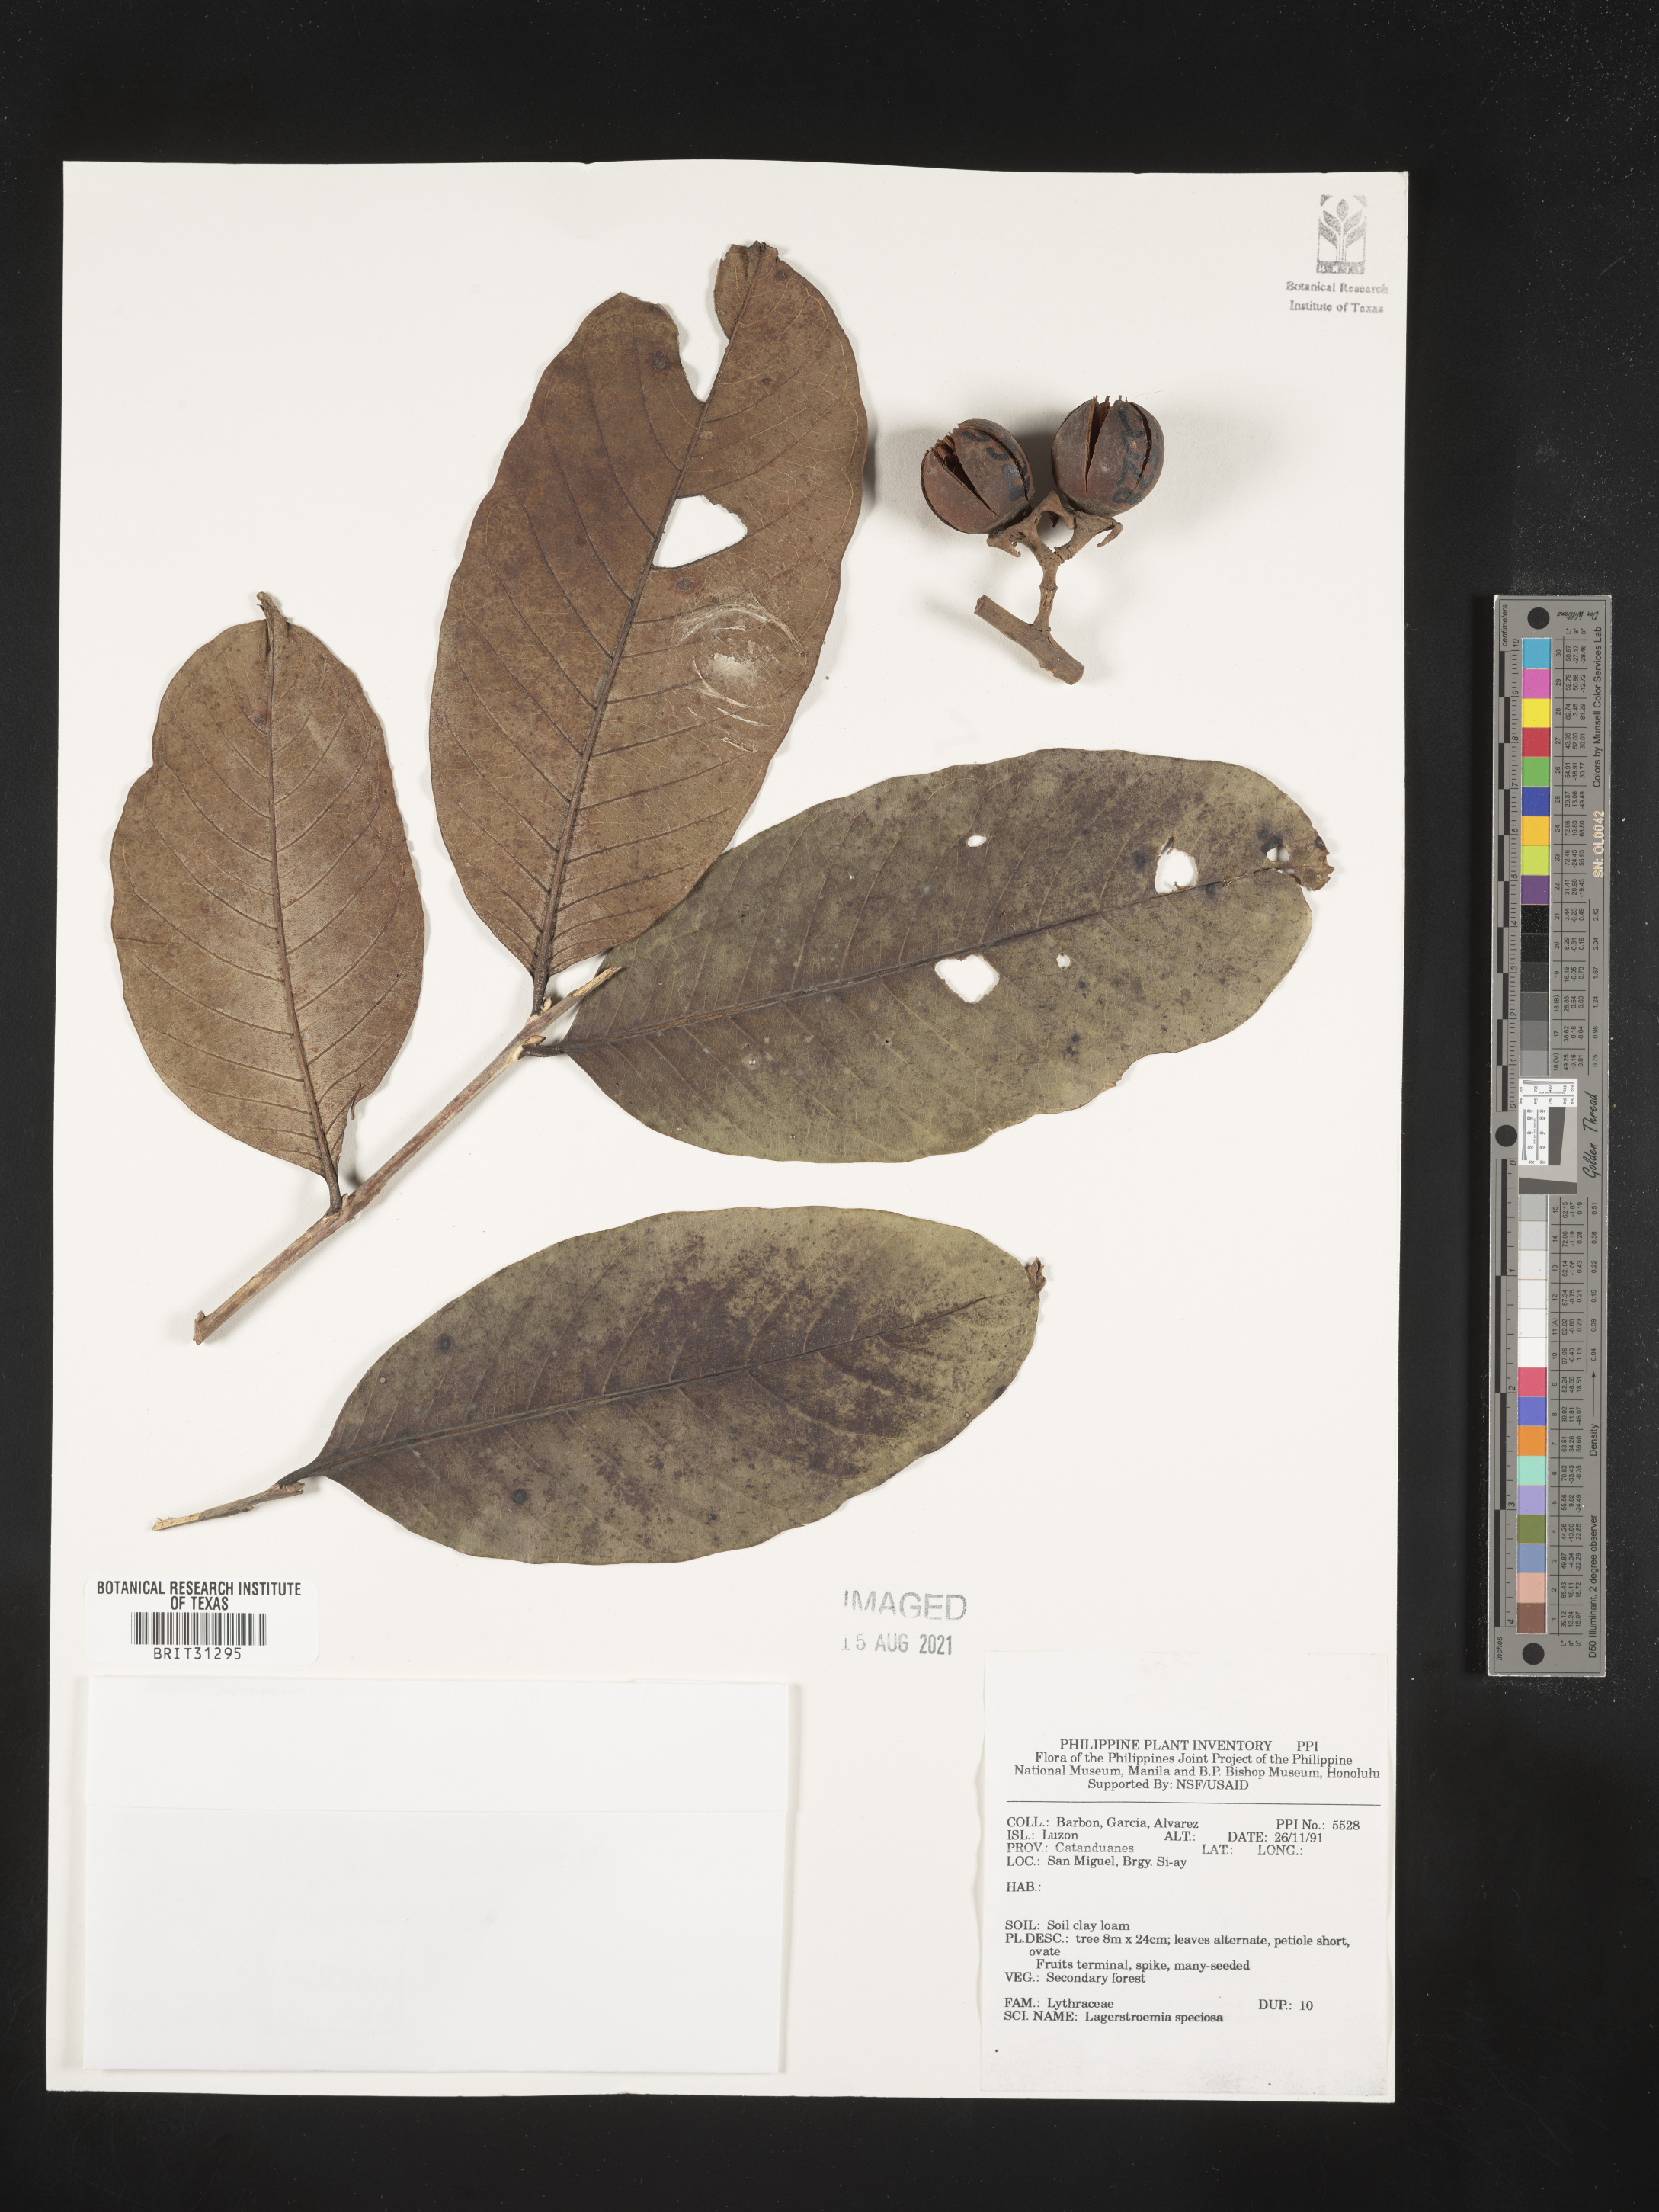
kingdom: Plantae
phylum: Tracheophyta
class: Magnoliopsida
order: Myrtales
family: Lythraceae
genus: Lagerstroemia
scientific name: Lagerstroemia speciosa
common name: Queen's crape-myrtle
